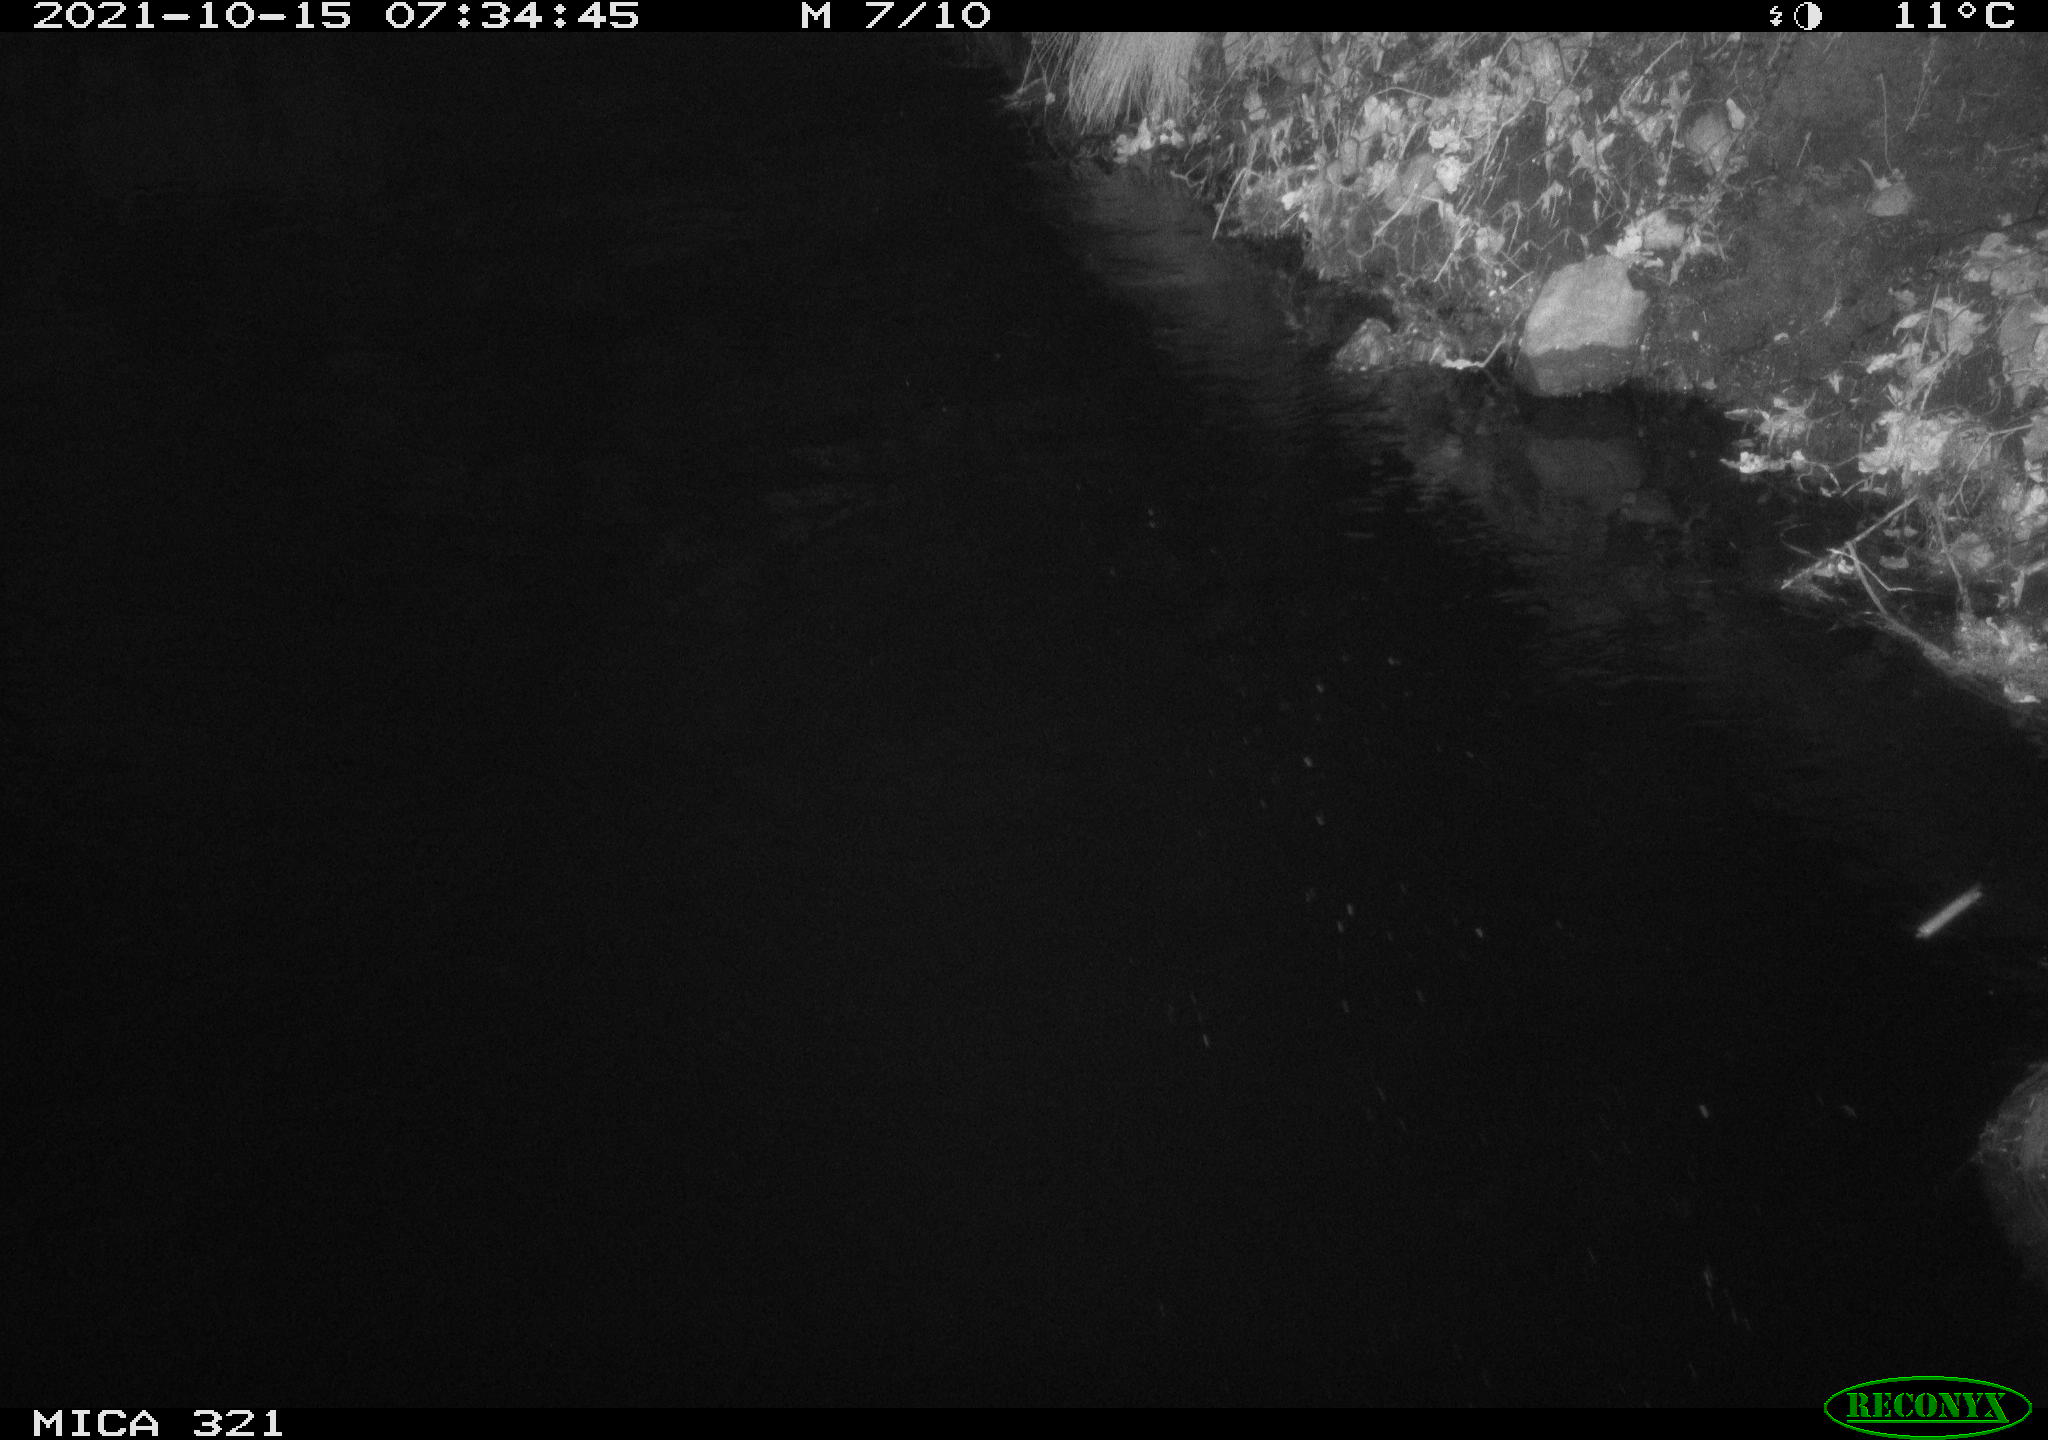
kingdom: Animalia
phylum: Chordata
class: Aves
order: Anseriformes
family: Anatidae
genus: Anas
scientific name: Anas platyrhynchos
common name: Mallard
